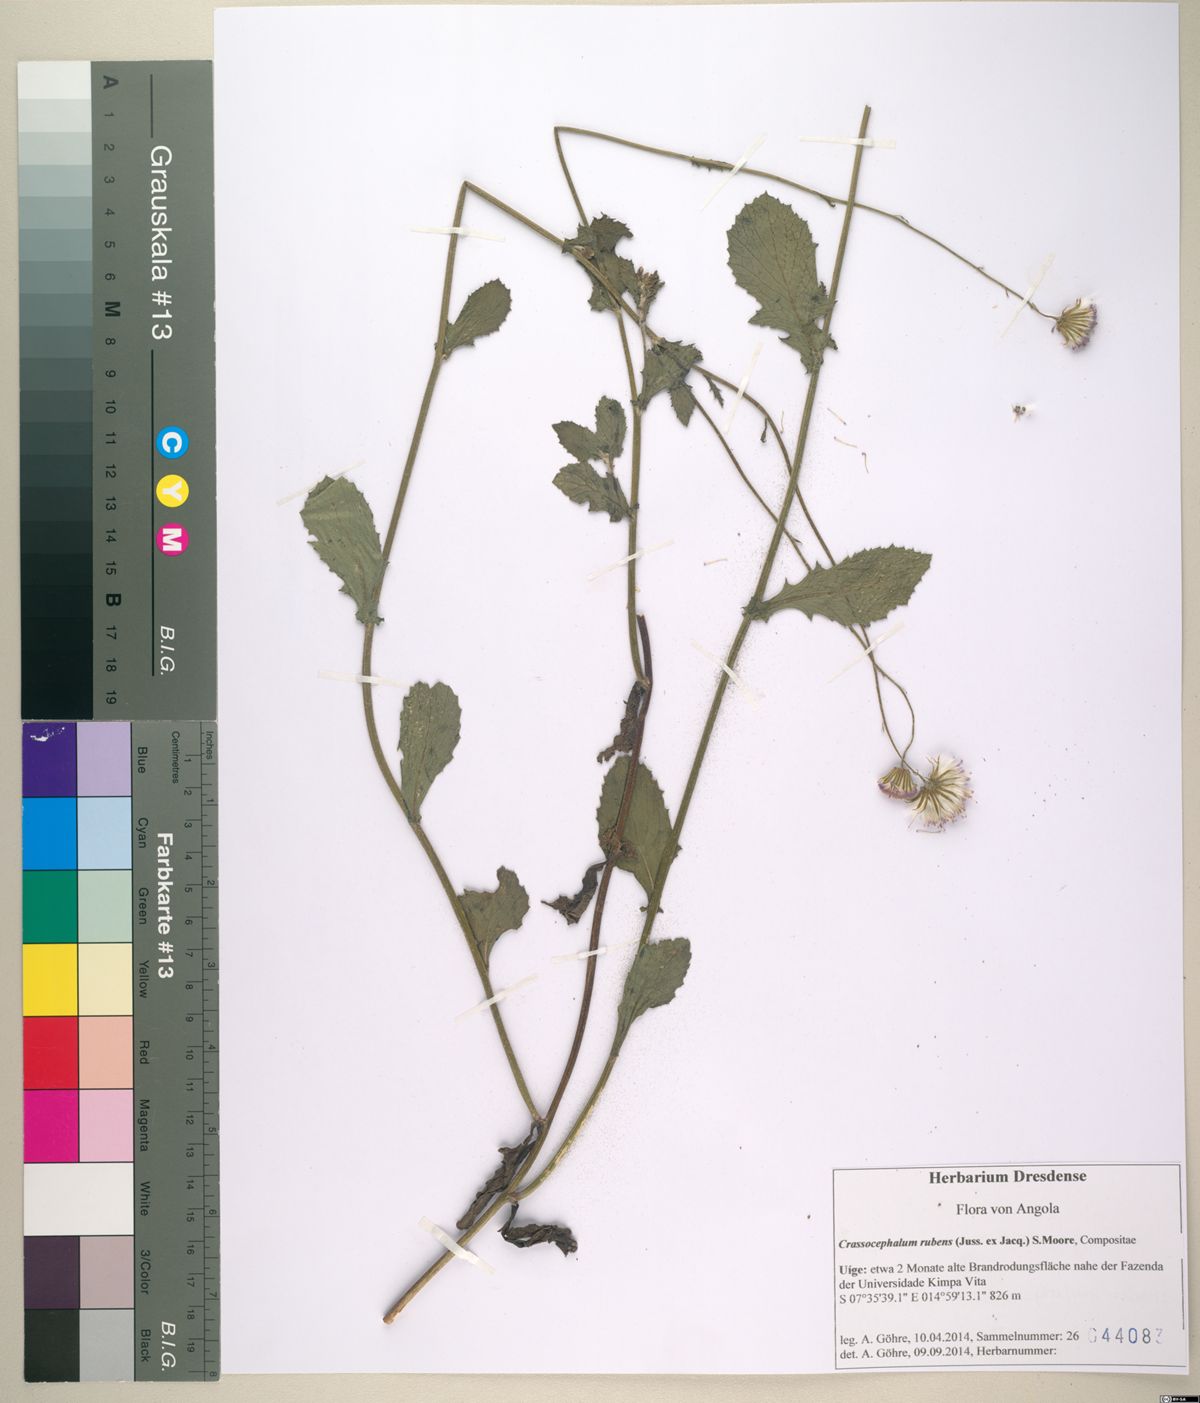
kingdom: Plantae
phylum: Tracheophyta
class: Magnoliopsida
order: Asterales
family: Asteraceae
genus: Crassocephalum
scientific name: Crassocephalum rubens
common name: Yoruban bologi
